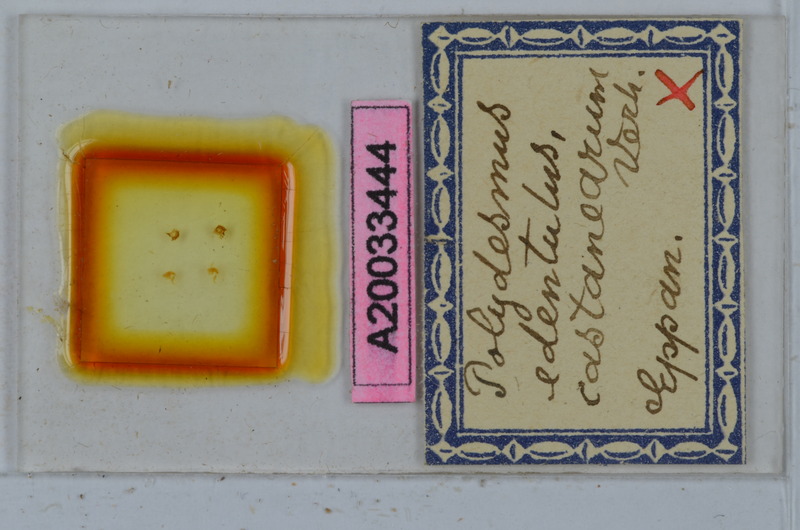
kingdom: Animalia
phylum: Arthropoda
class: Diplopoda
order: Polydesmida
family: Polydesmidae
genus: Polydesmus
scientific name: Polydesmus edentulus
